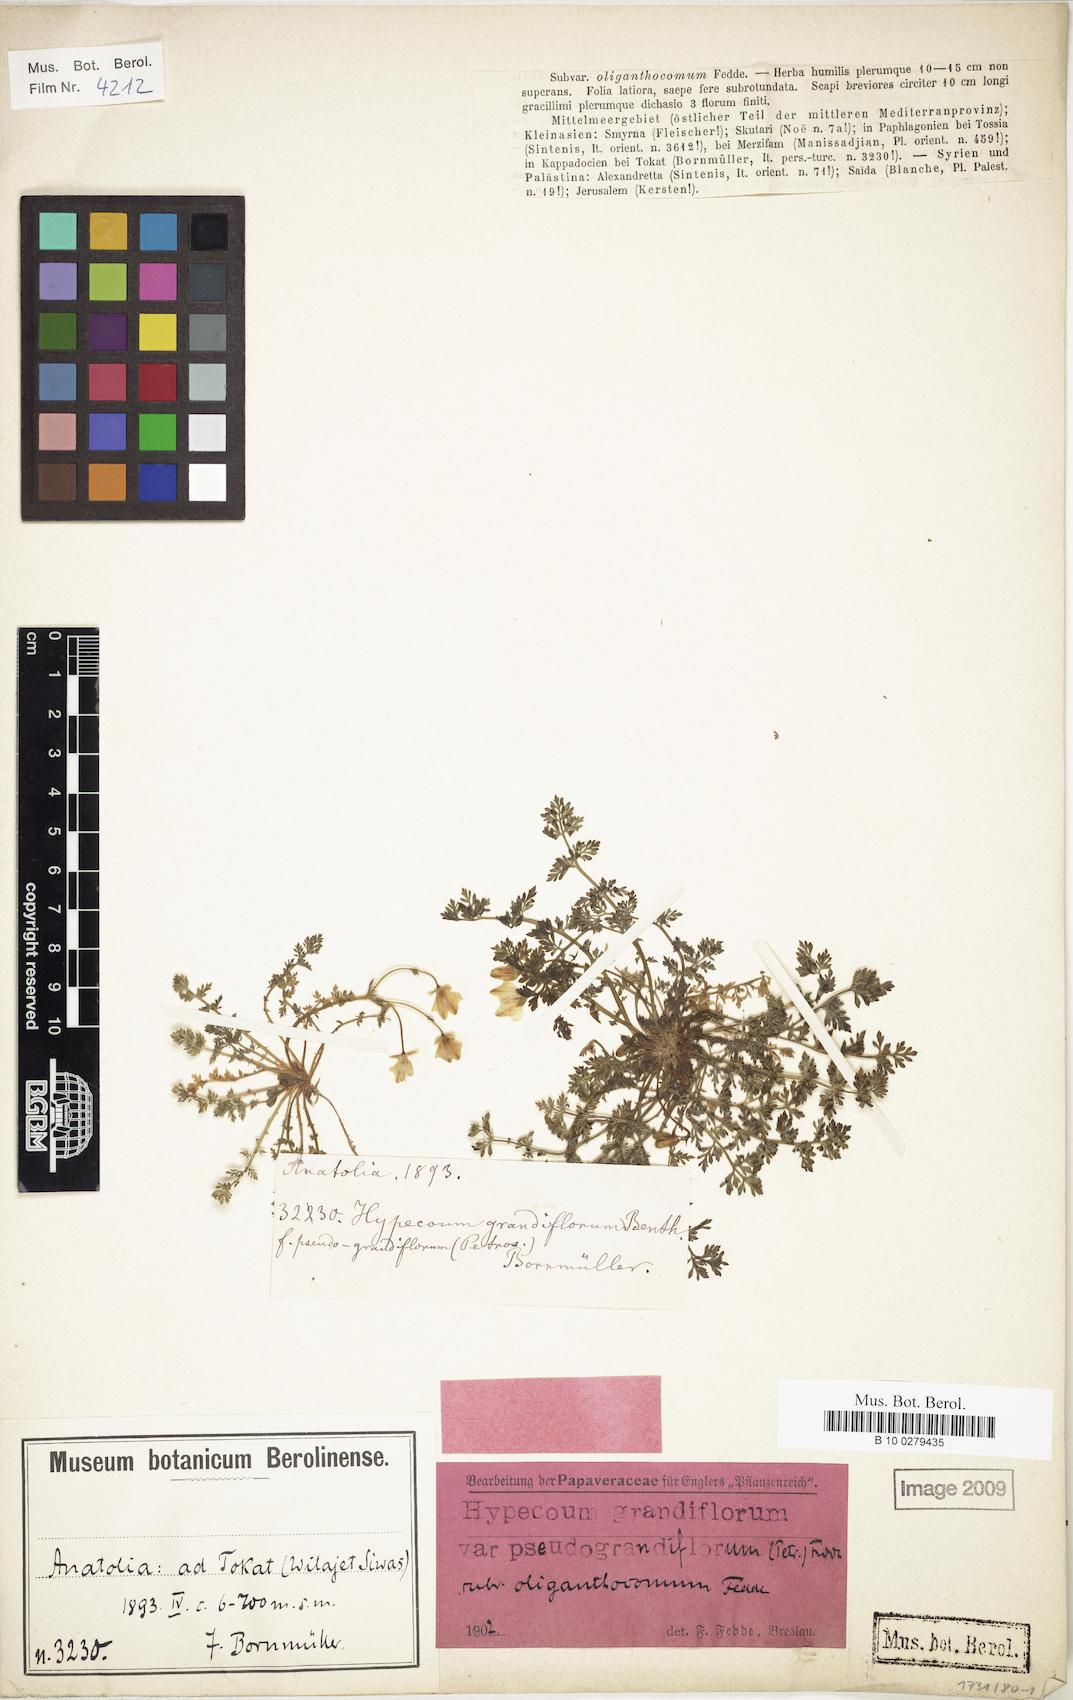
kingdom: Plantae
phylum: Tracheophyta
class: Magnoliopsida
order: Ranunculales
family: Papaveraceae
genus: Hypecoum
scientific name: Hypecoum imberbe
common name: Sicklefruit hypecoum
